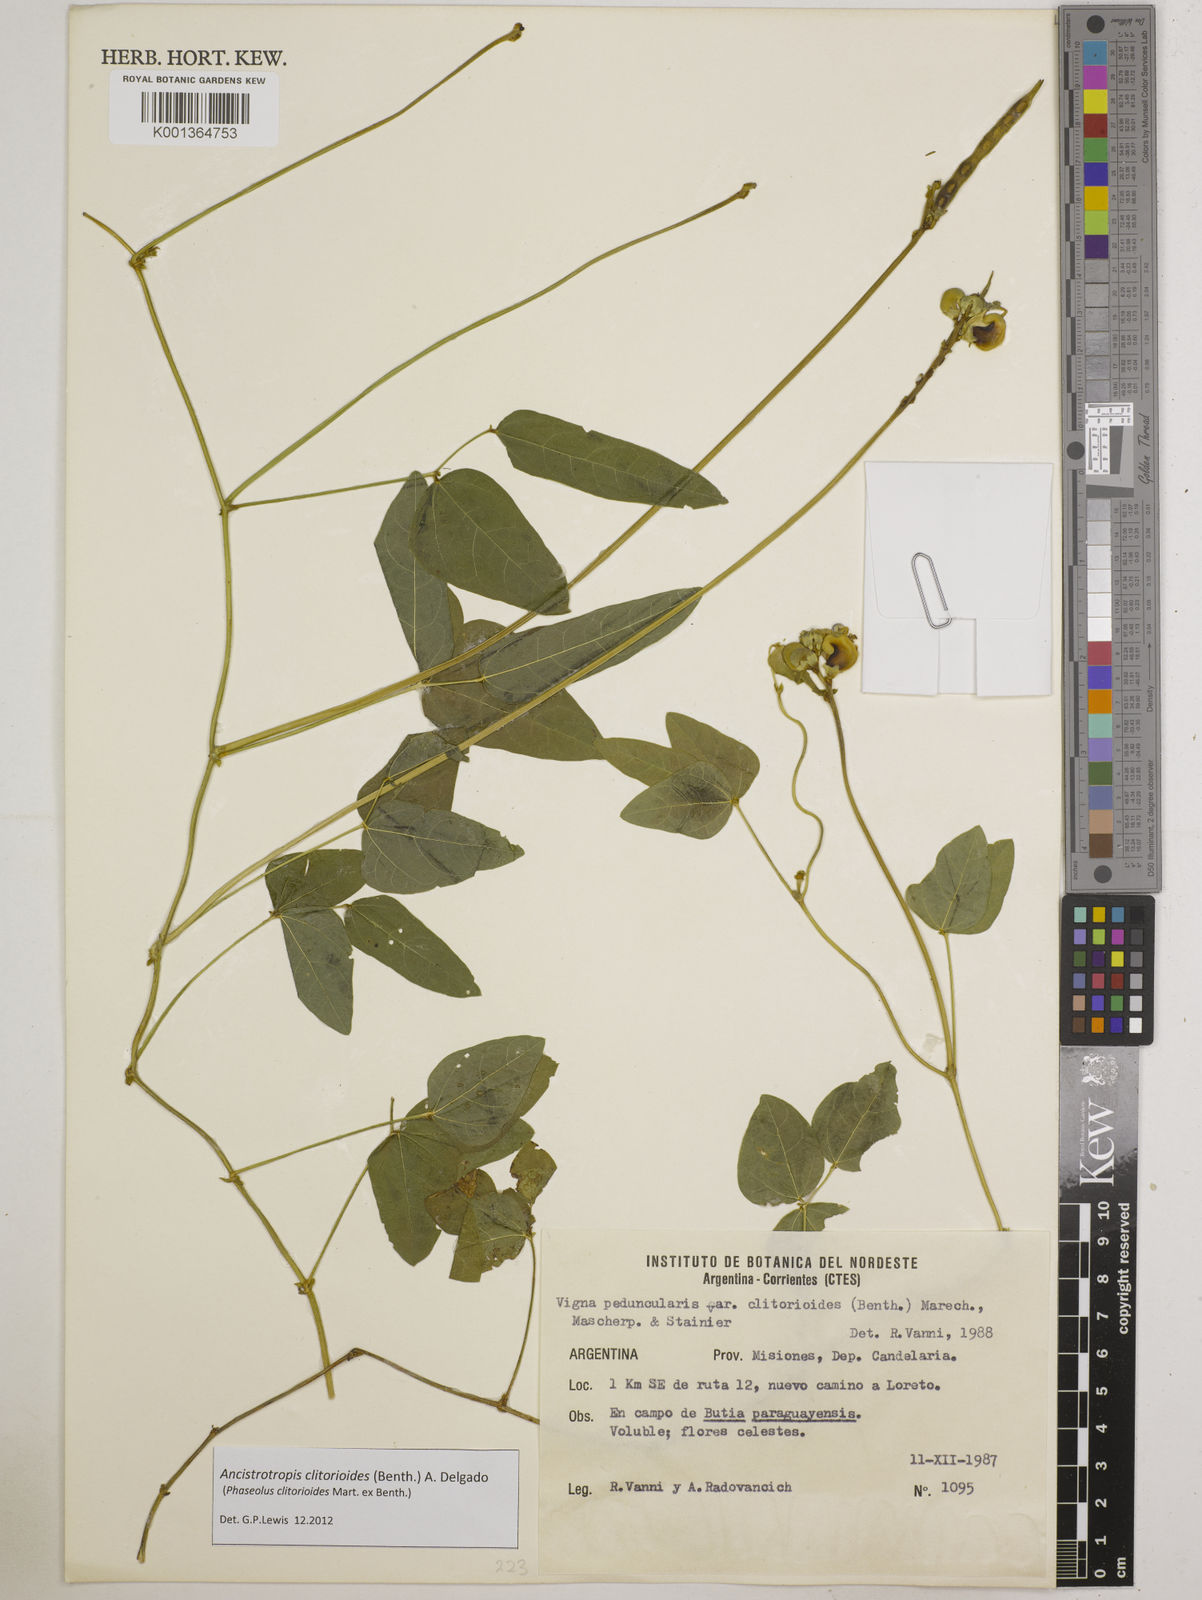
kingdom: Plantae
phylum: Tracheophyta
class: Magnoliopsida
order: Fabales
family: Fabaceae
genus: Ancistrotropis
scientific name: Ancistrotropis clitorioides
